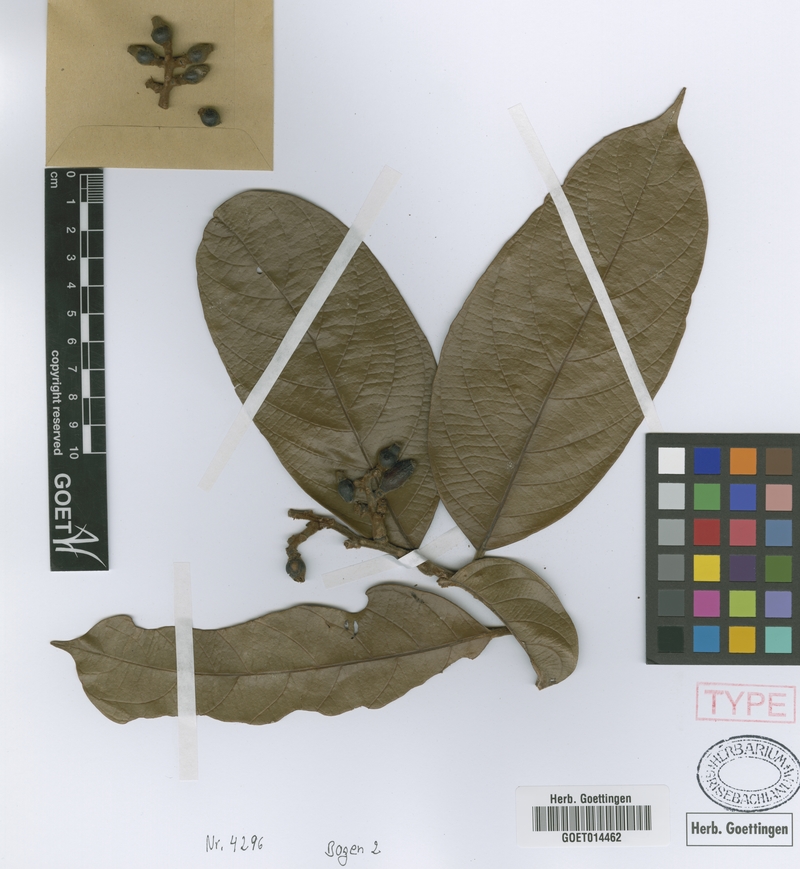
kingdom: Plantae
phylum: Tracheophyta
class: Magnoliopsida
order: Laurales
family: Lauraceae
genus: Cryptocarya
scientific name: Cryptocarya griffithiana
